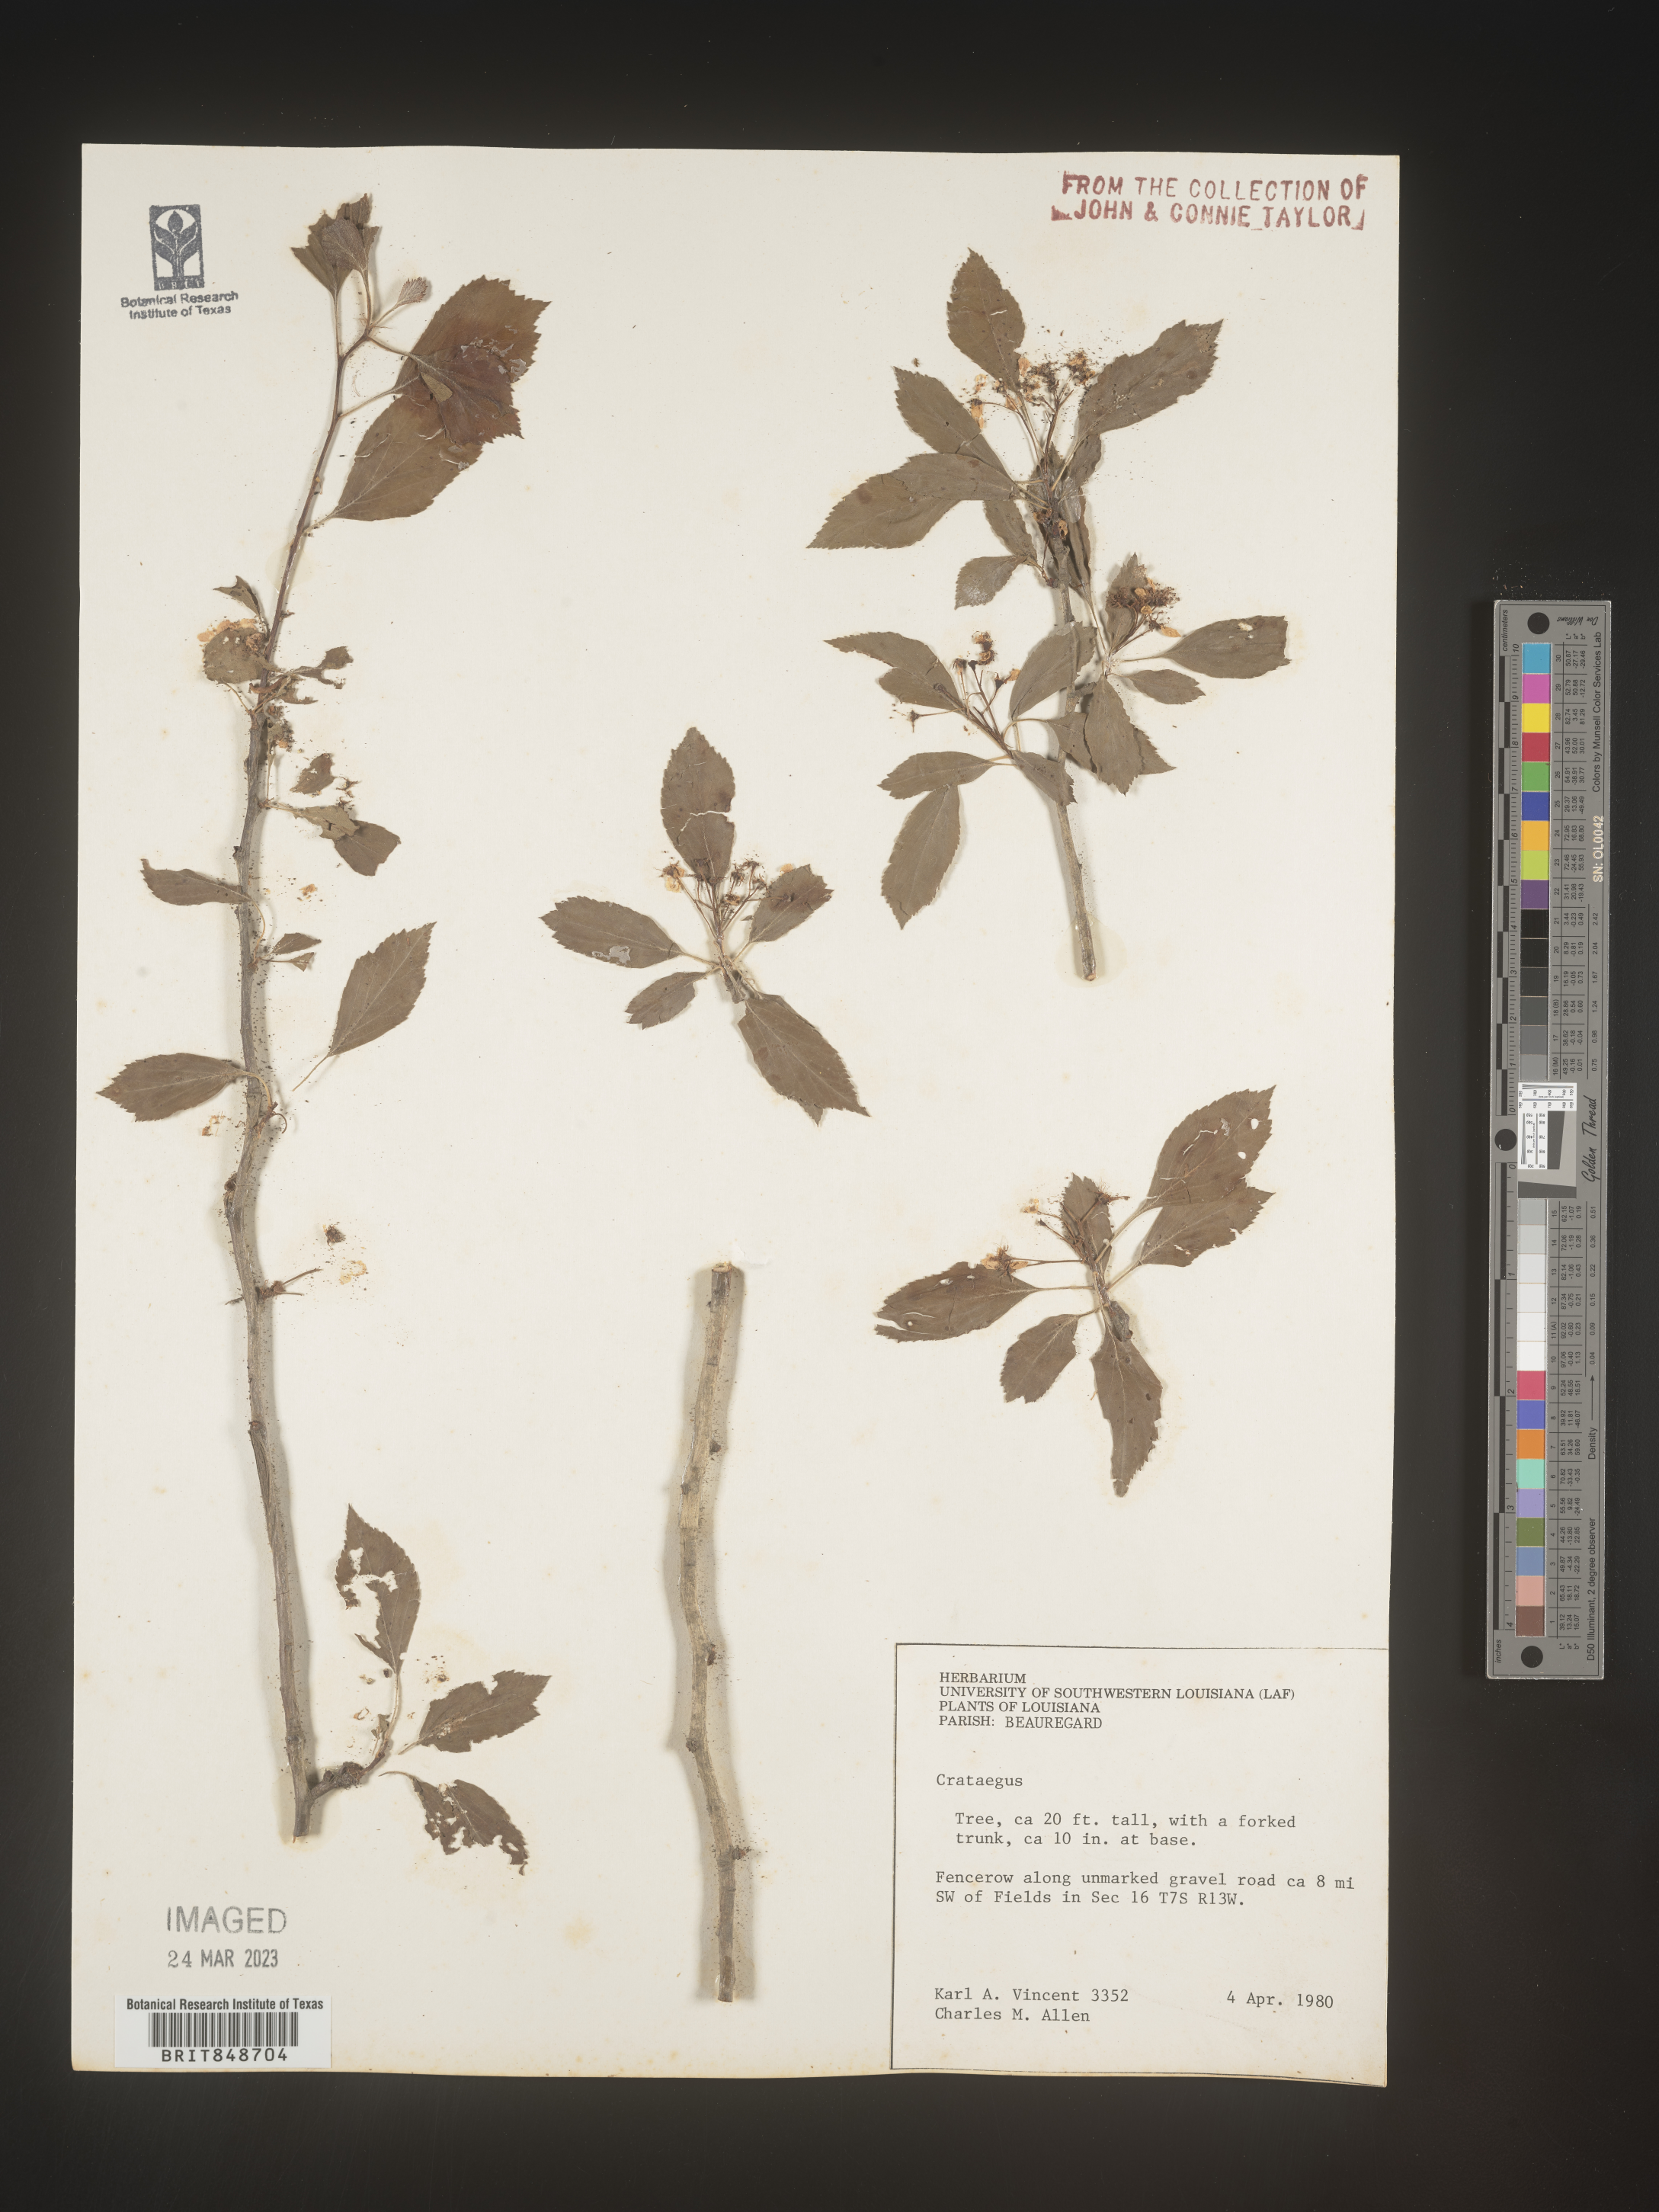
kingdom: Plantae
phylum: Tracheophyta
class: Magnoliopsida
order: Rosales
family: Rosaceae
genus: Crataegus
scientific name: Crataegus
